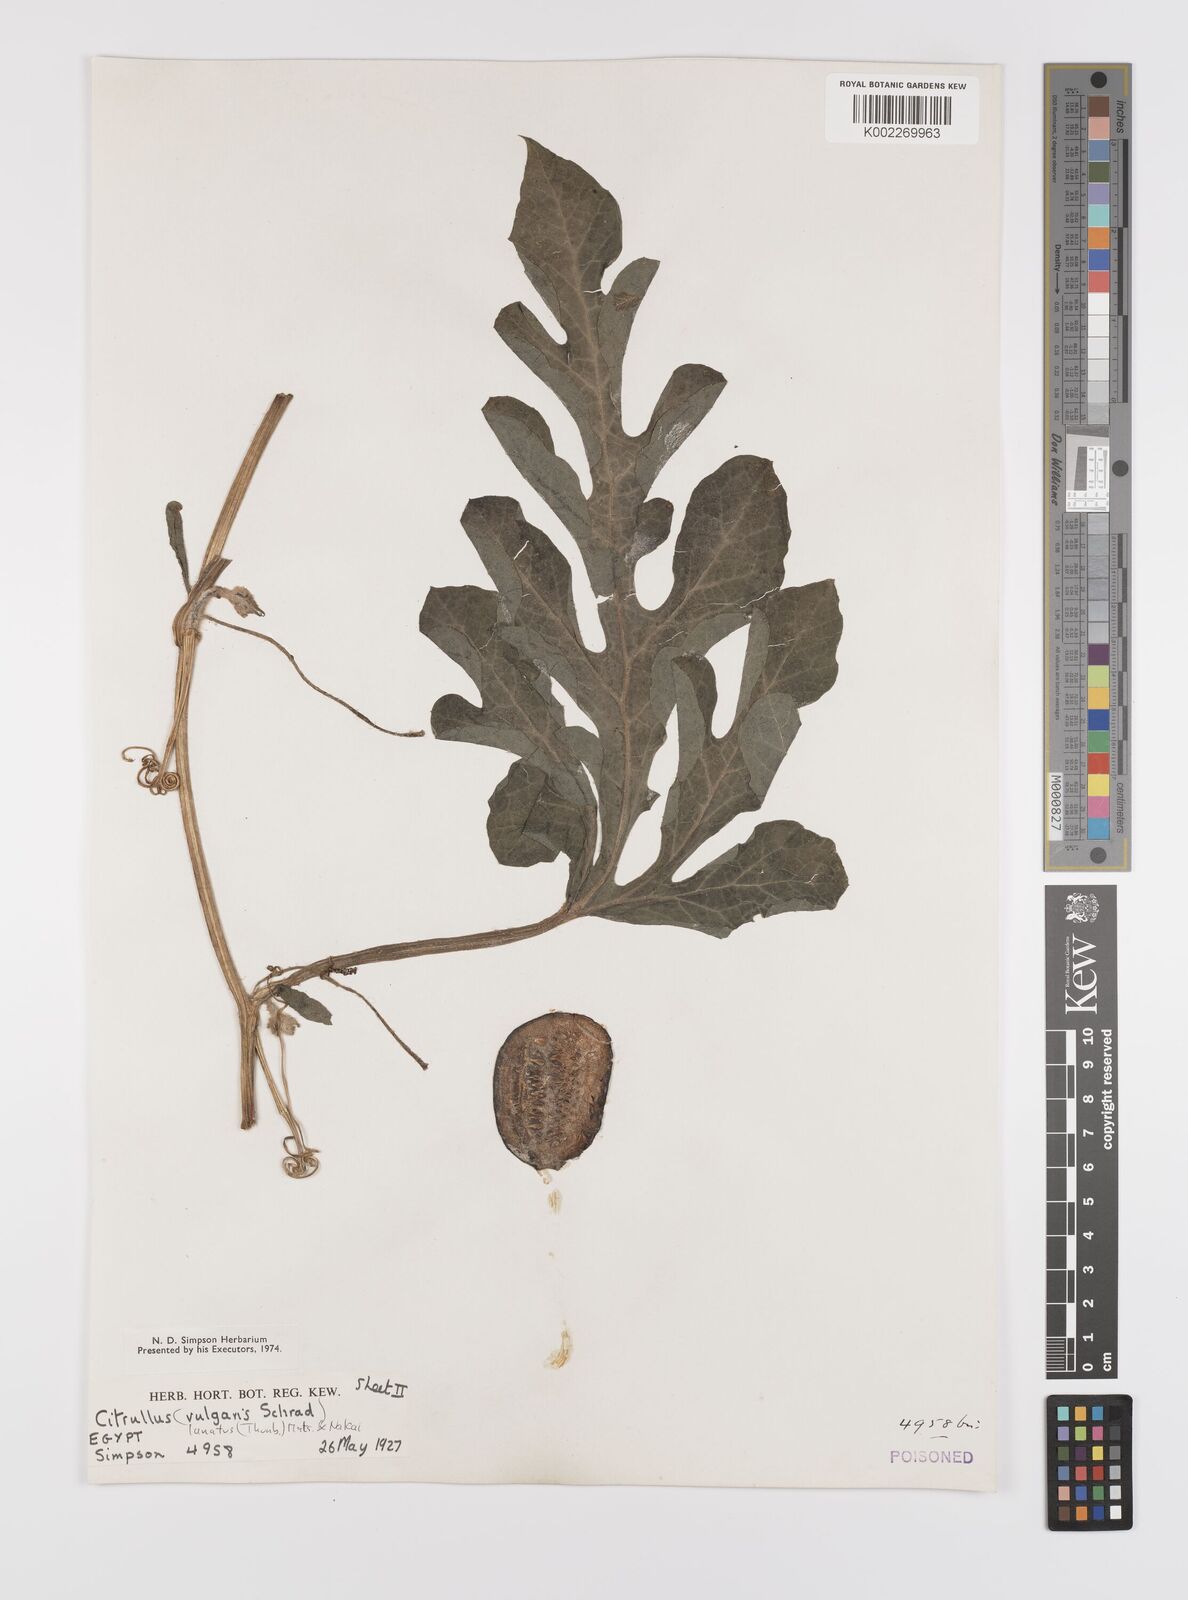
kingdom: Plantae
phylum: Tracheophyta
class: Magnoliopsida
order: Cucurbitales
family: Cucurbitaceae
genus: Citrullus
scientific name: Citrullus lanatus
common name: Watermelon
